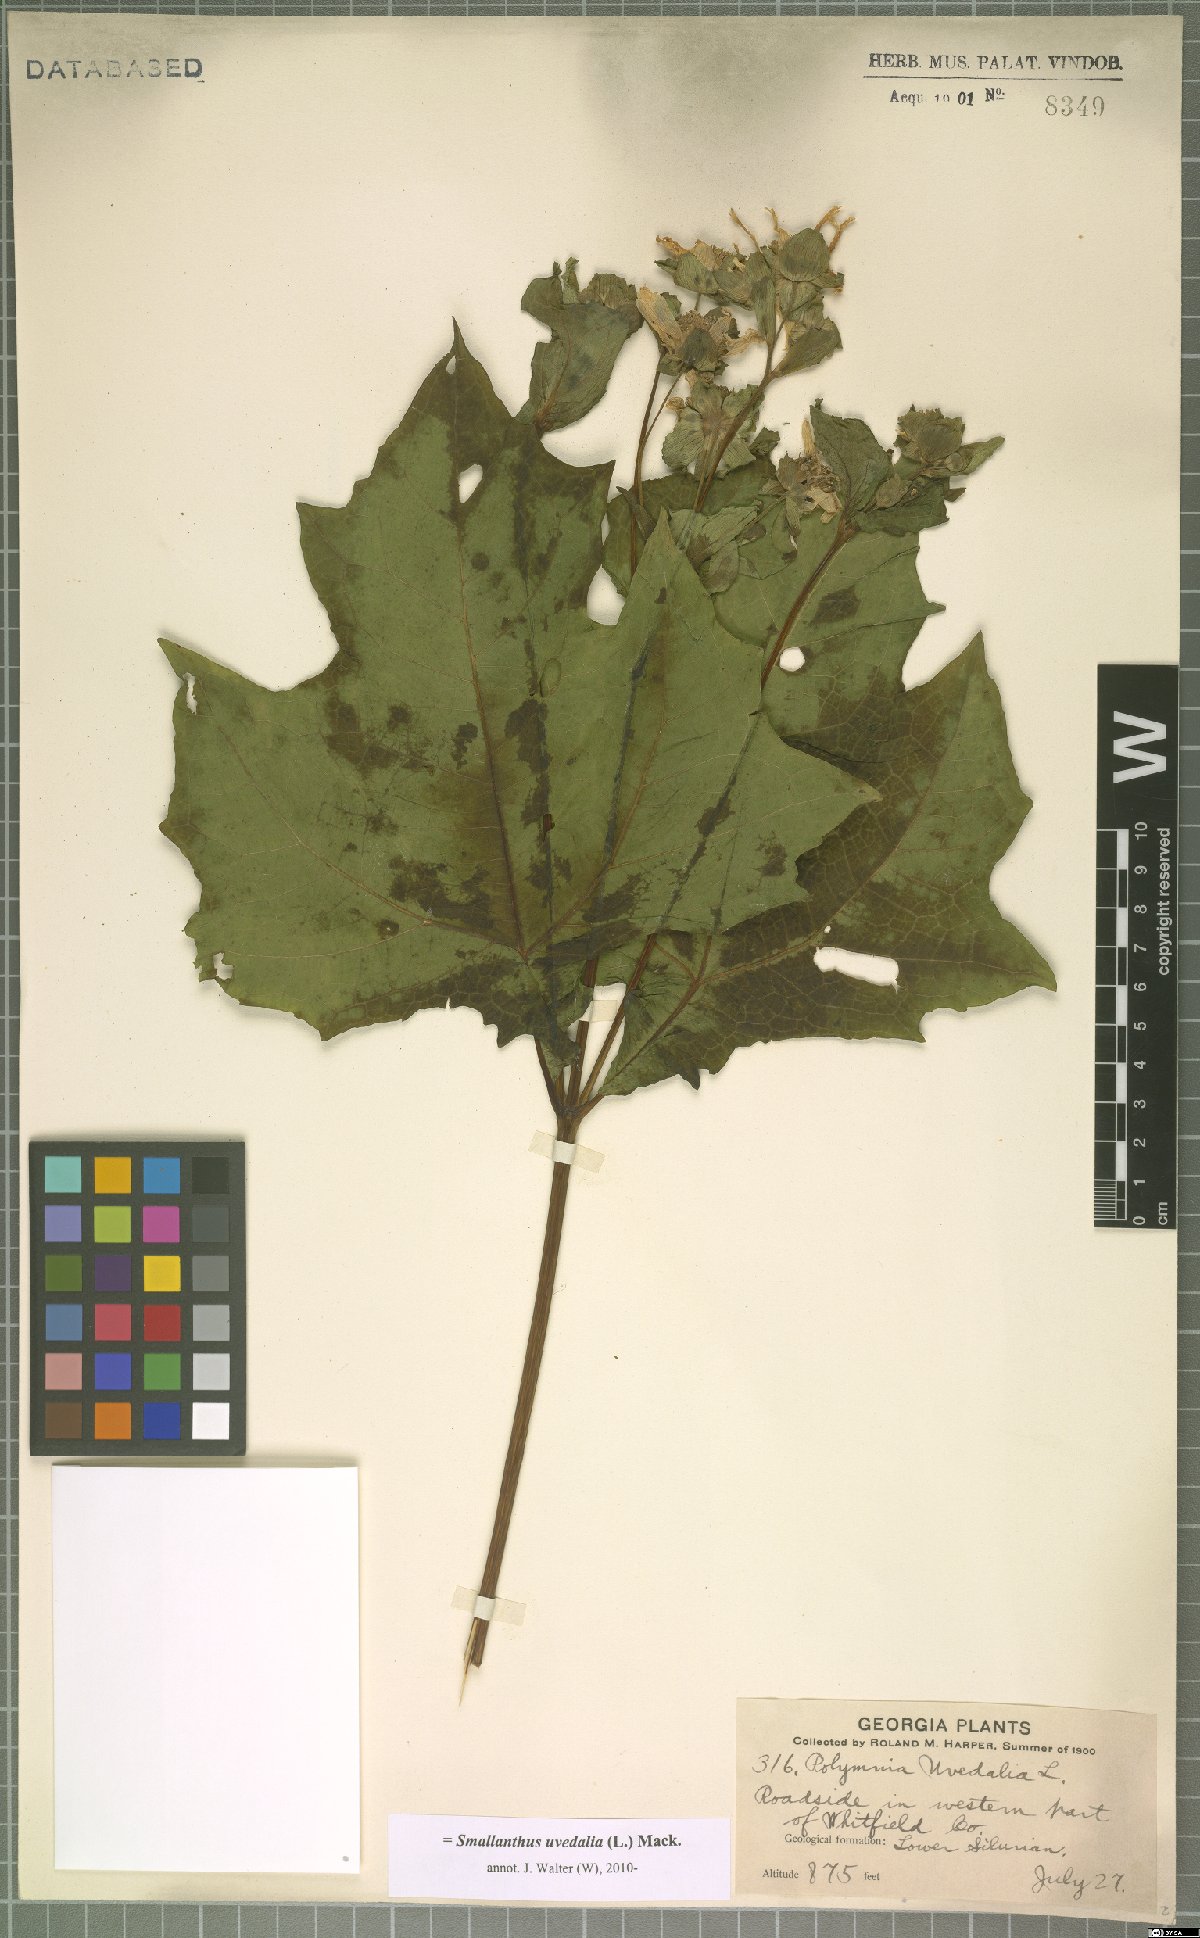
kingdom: Plantae
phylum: Tracheophyta
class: Magnoliopsida
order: Asterales
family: Asteraceae
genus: Smallanthus
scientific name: Smallanthus uvedalia
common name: Bear's-foot
